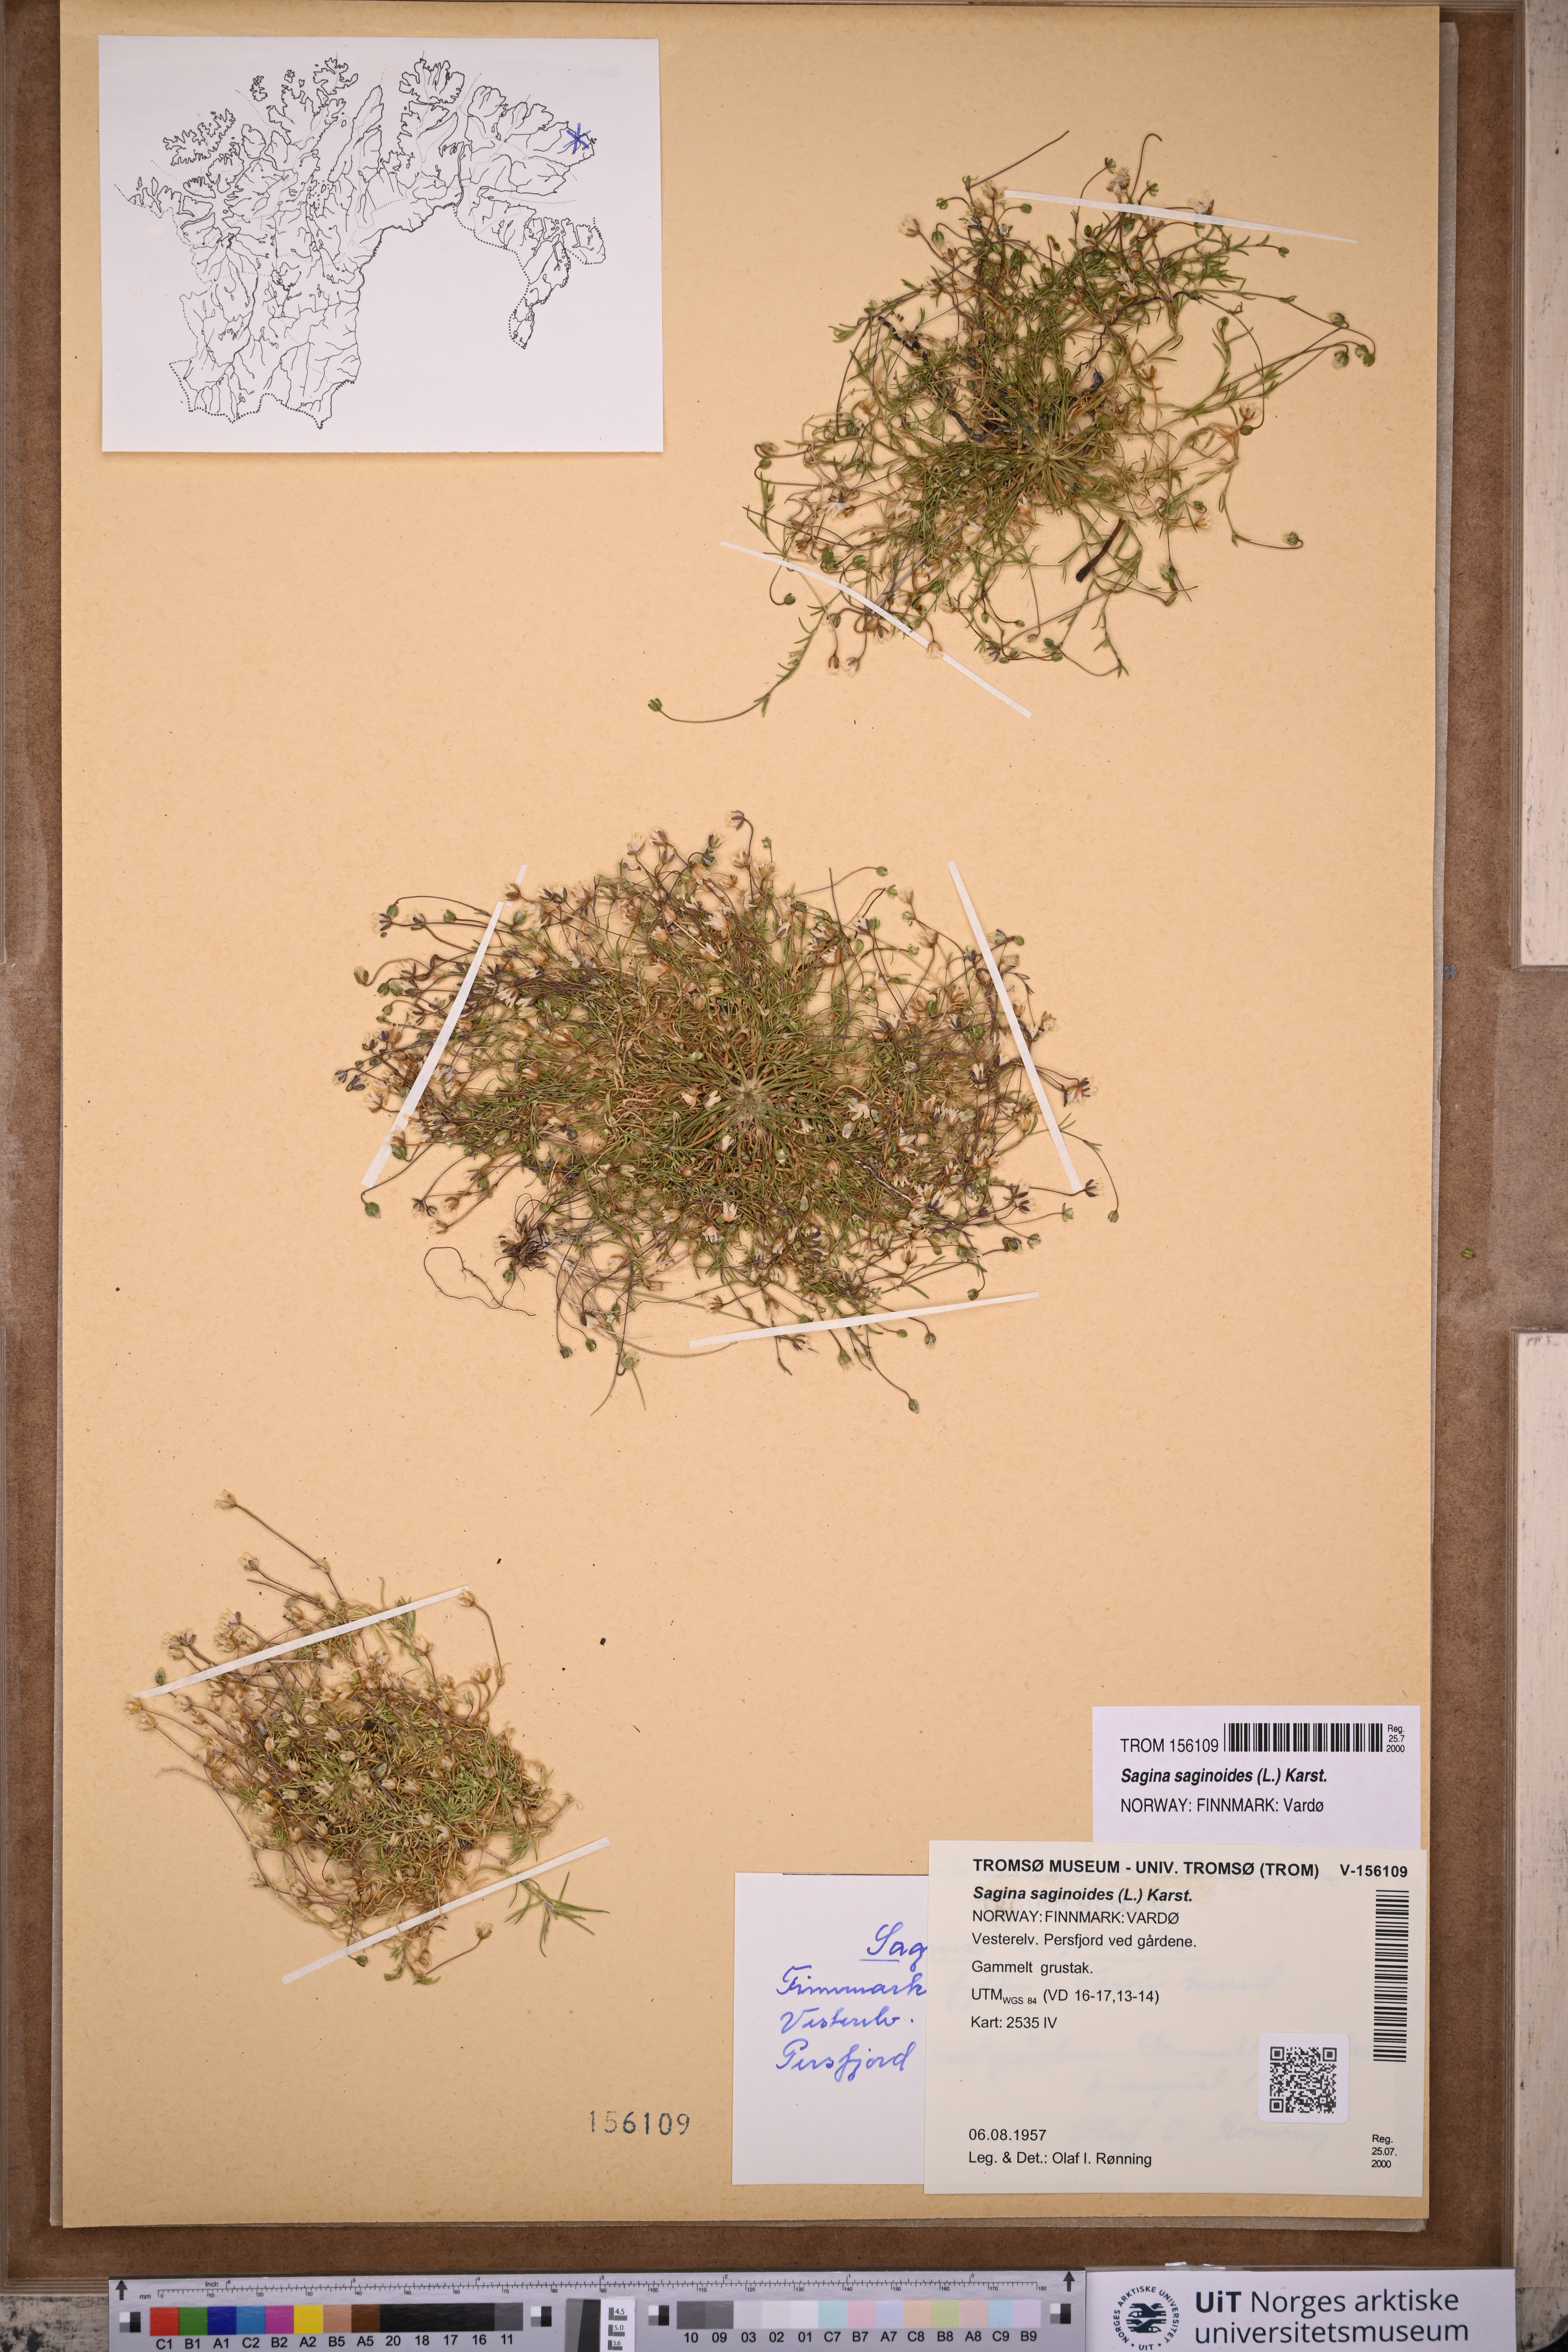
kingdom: Plantae
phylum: Tracheophyta
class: Magnoliopsida
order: Caryophyllales
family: Caryophyllaceae
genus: Sagina
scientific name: Sagina saginoides
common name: Alpine pearlwort
